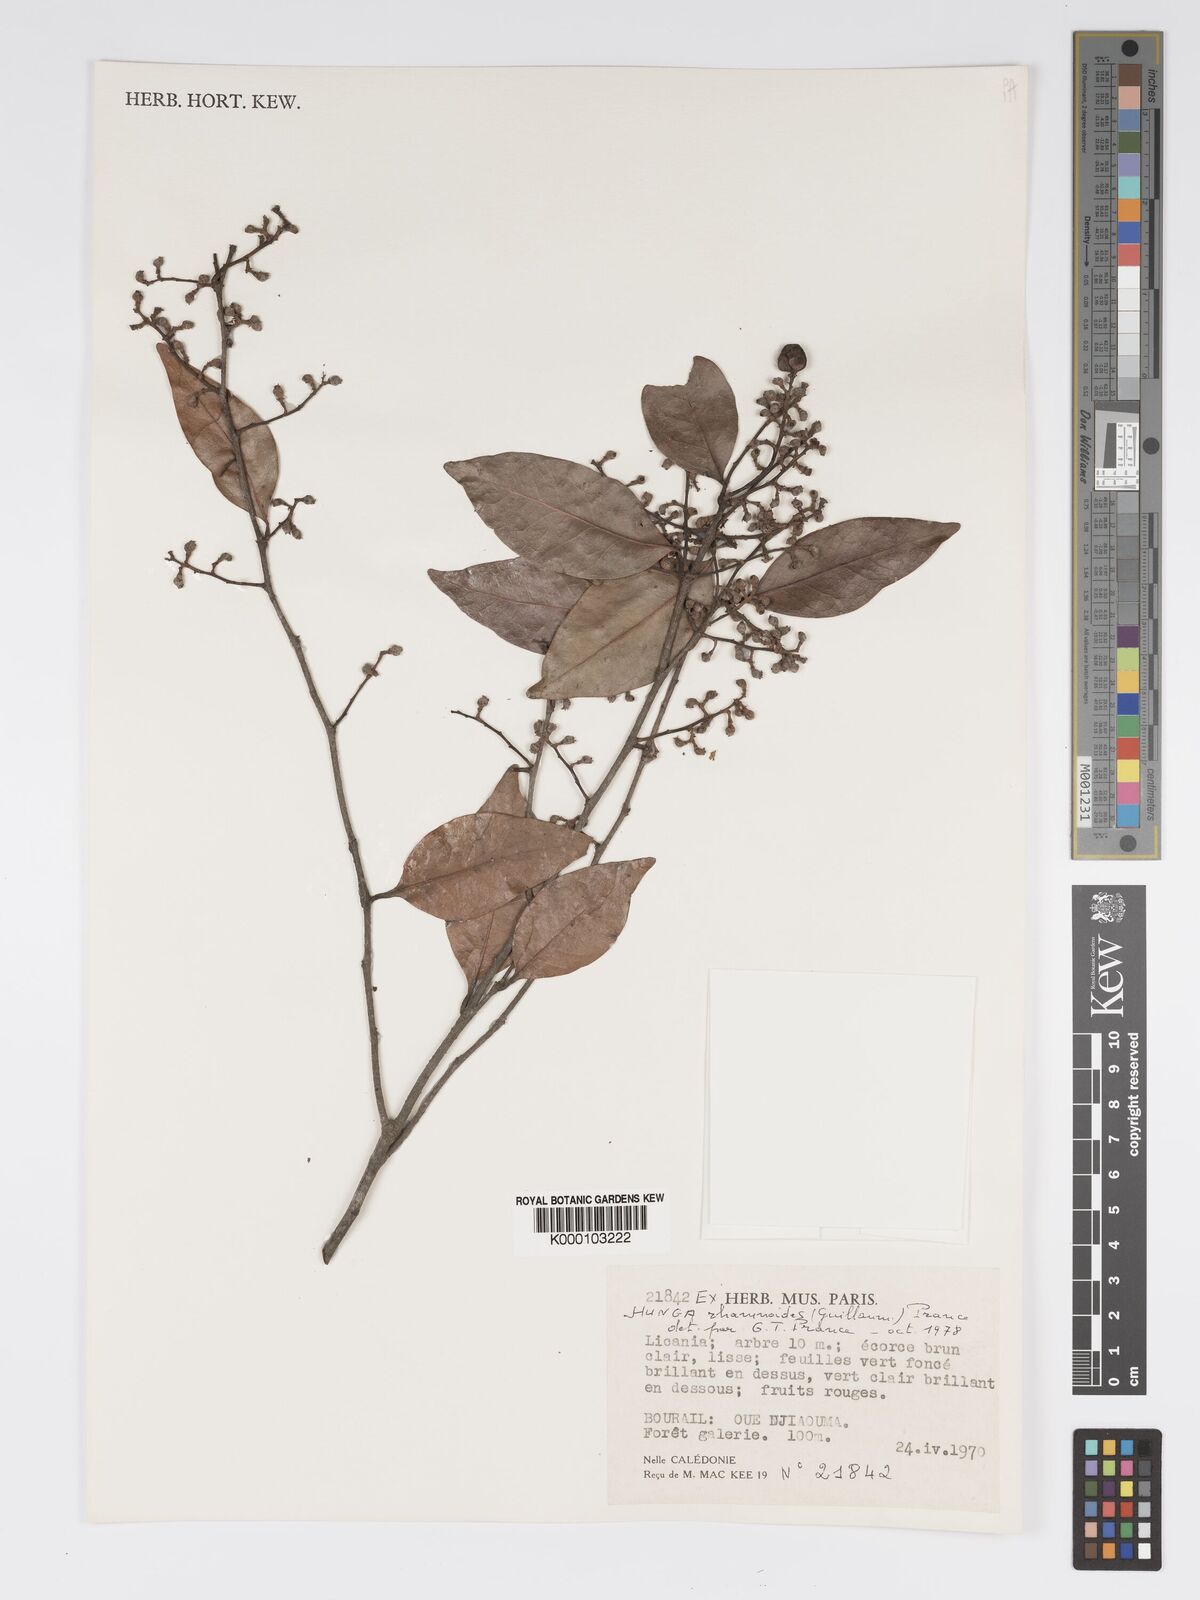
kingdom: Plantae
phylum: Tracheophyta
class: Magnoliopsida
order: Malpighiales
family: Chrysobalanaceae
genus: Hunga
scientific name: Hunga rhamnoides
